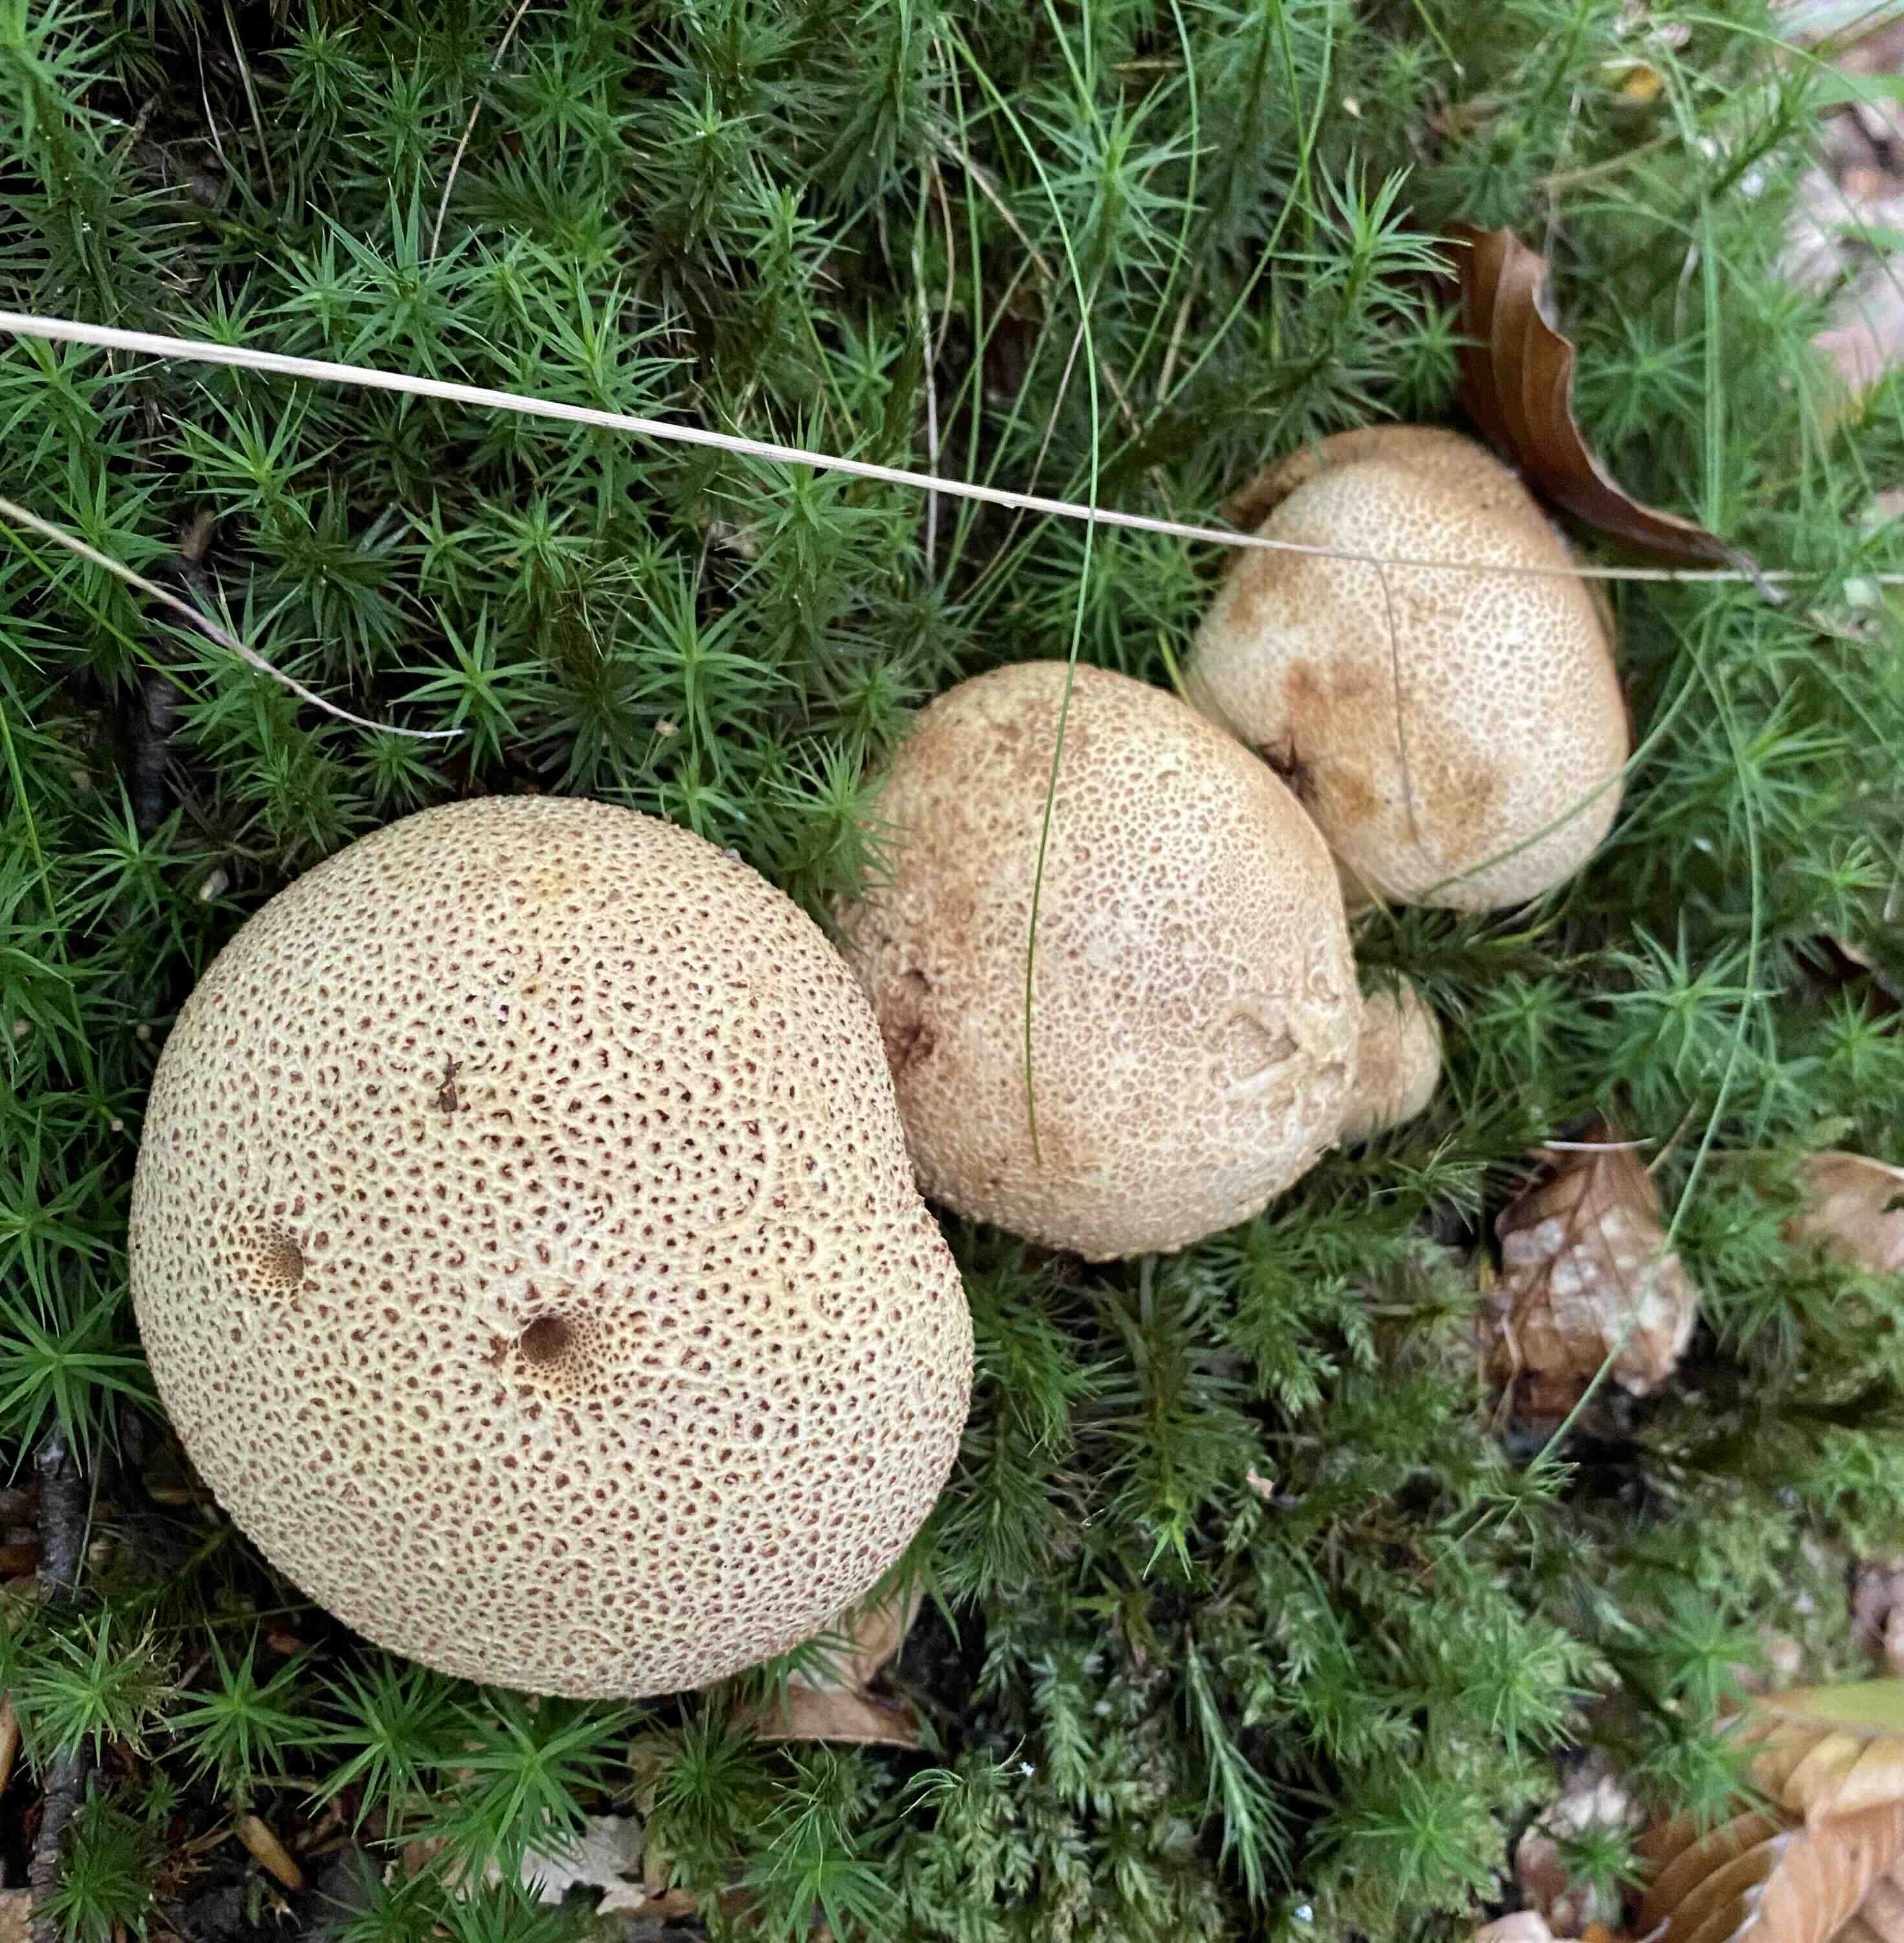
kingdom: Fungi
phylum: Basidiomycota
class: Agaricomycetes
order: Boletales
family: Sclerodermataceae
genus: Scleroderma
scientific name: Scleroderma citrinum
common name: almindelig bruskbold
